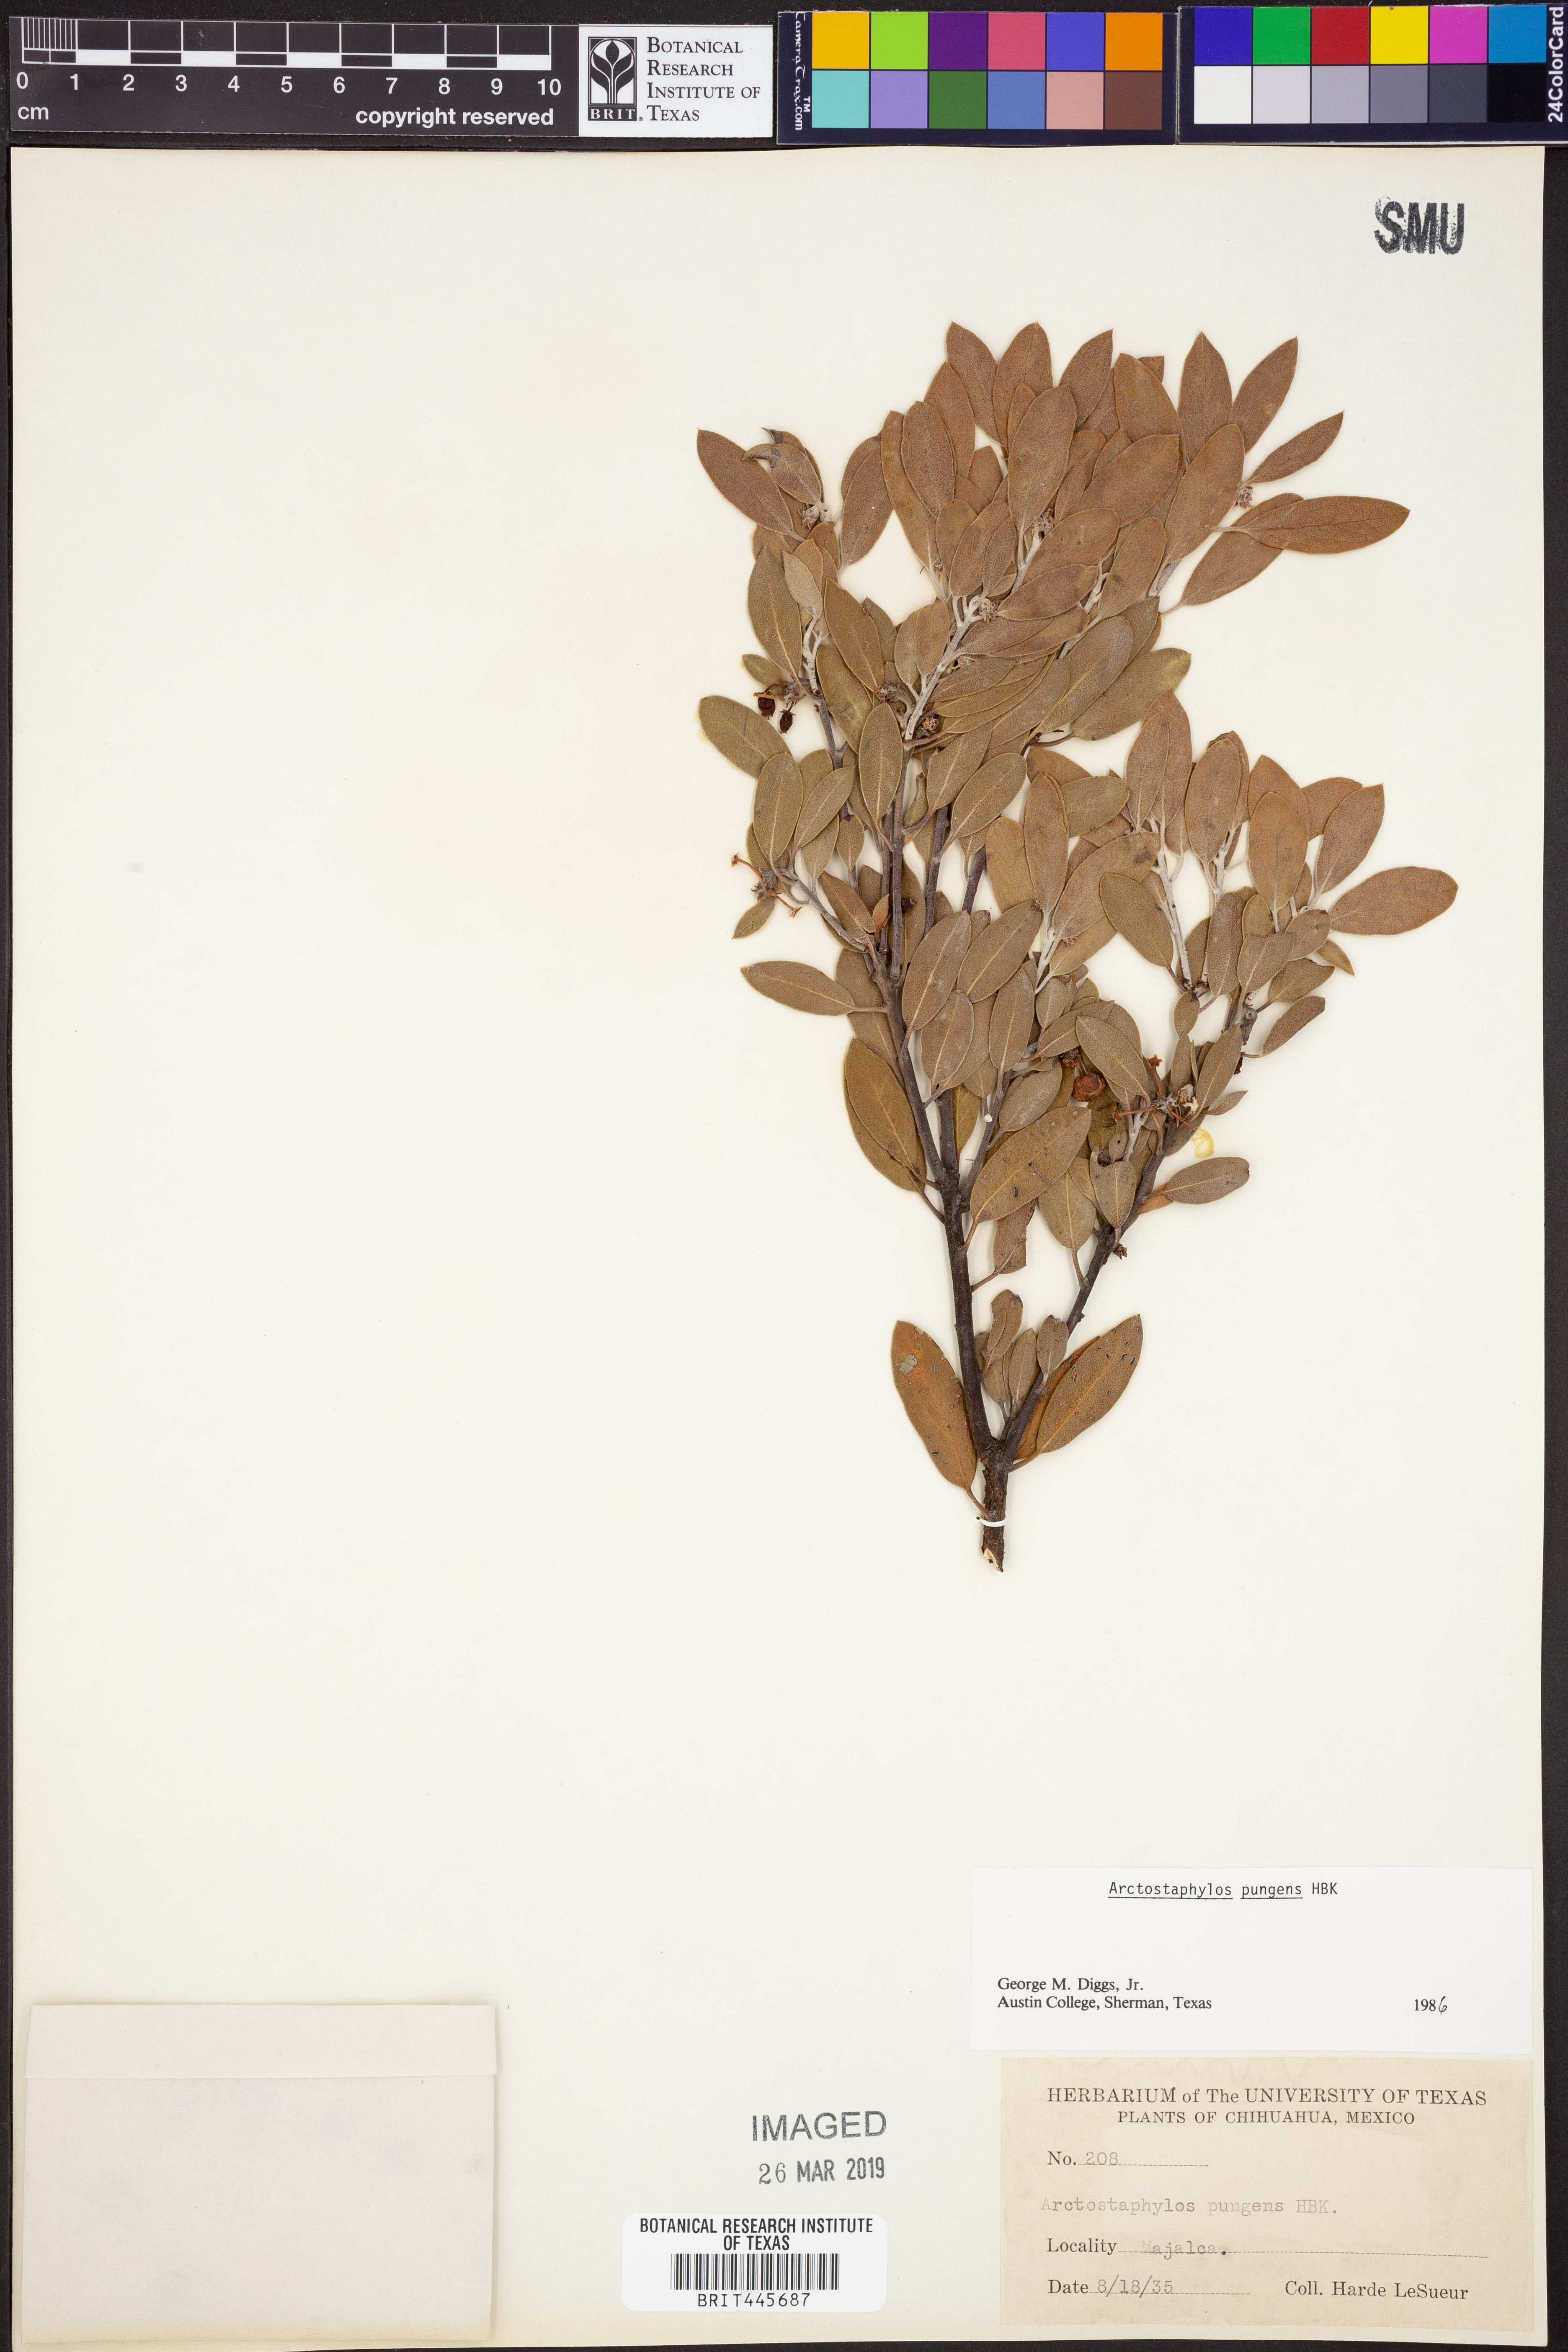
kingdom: Plantae
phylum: Tracheophyta
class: Magnoliopsida
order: Ericales
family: Ericaceae
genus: Arctostaphylos
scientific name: Arctostaphylos pungens
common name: Mexican manzanita
